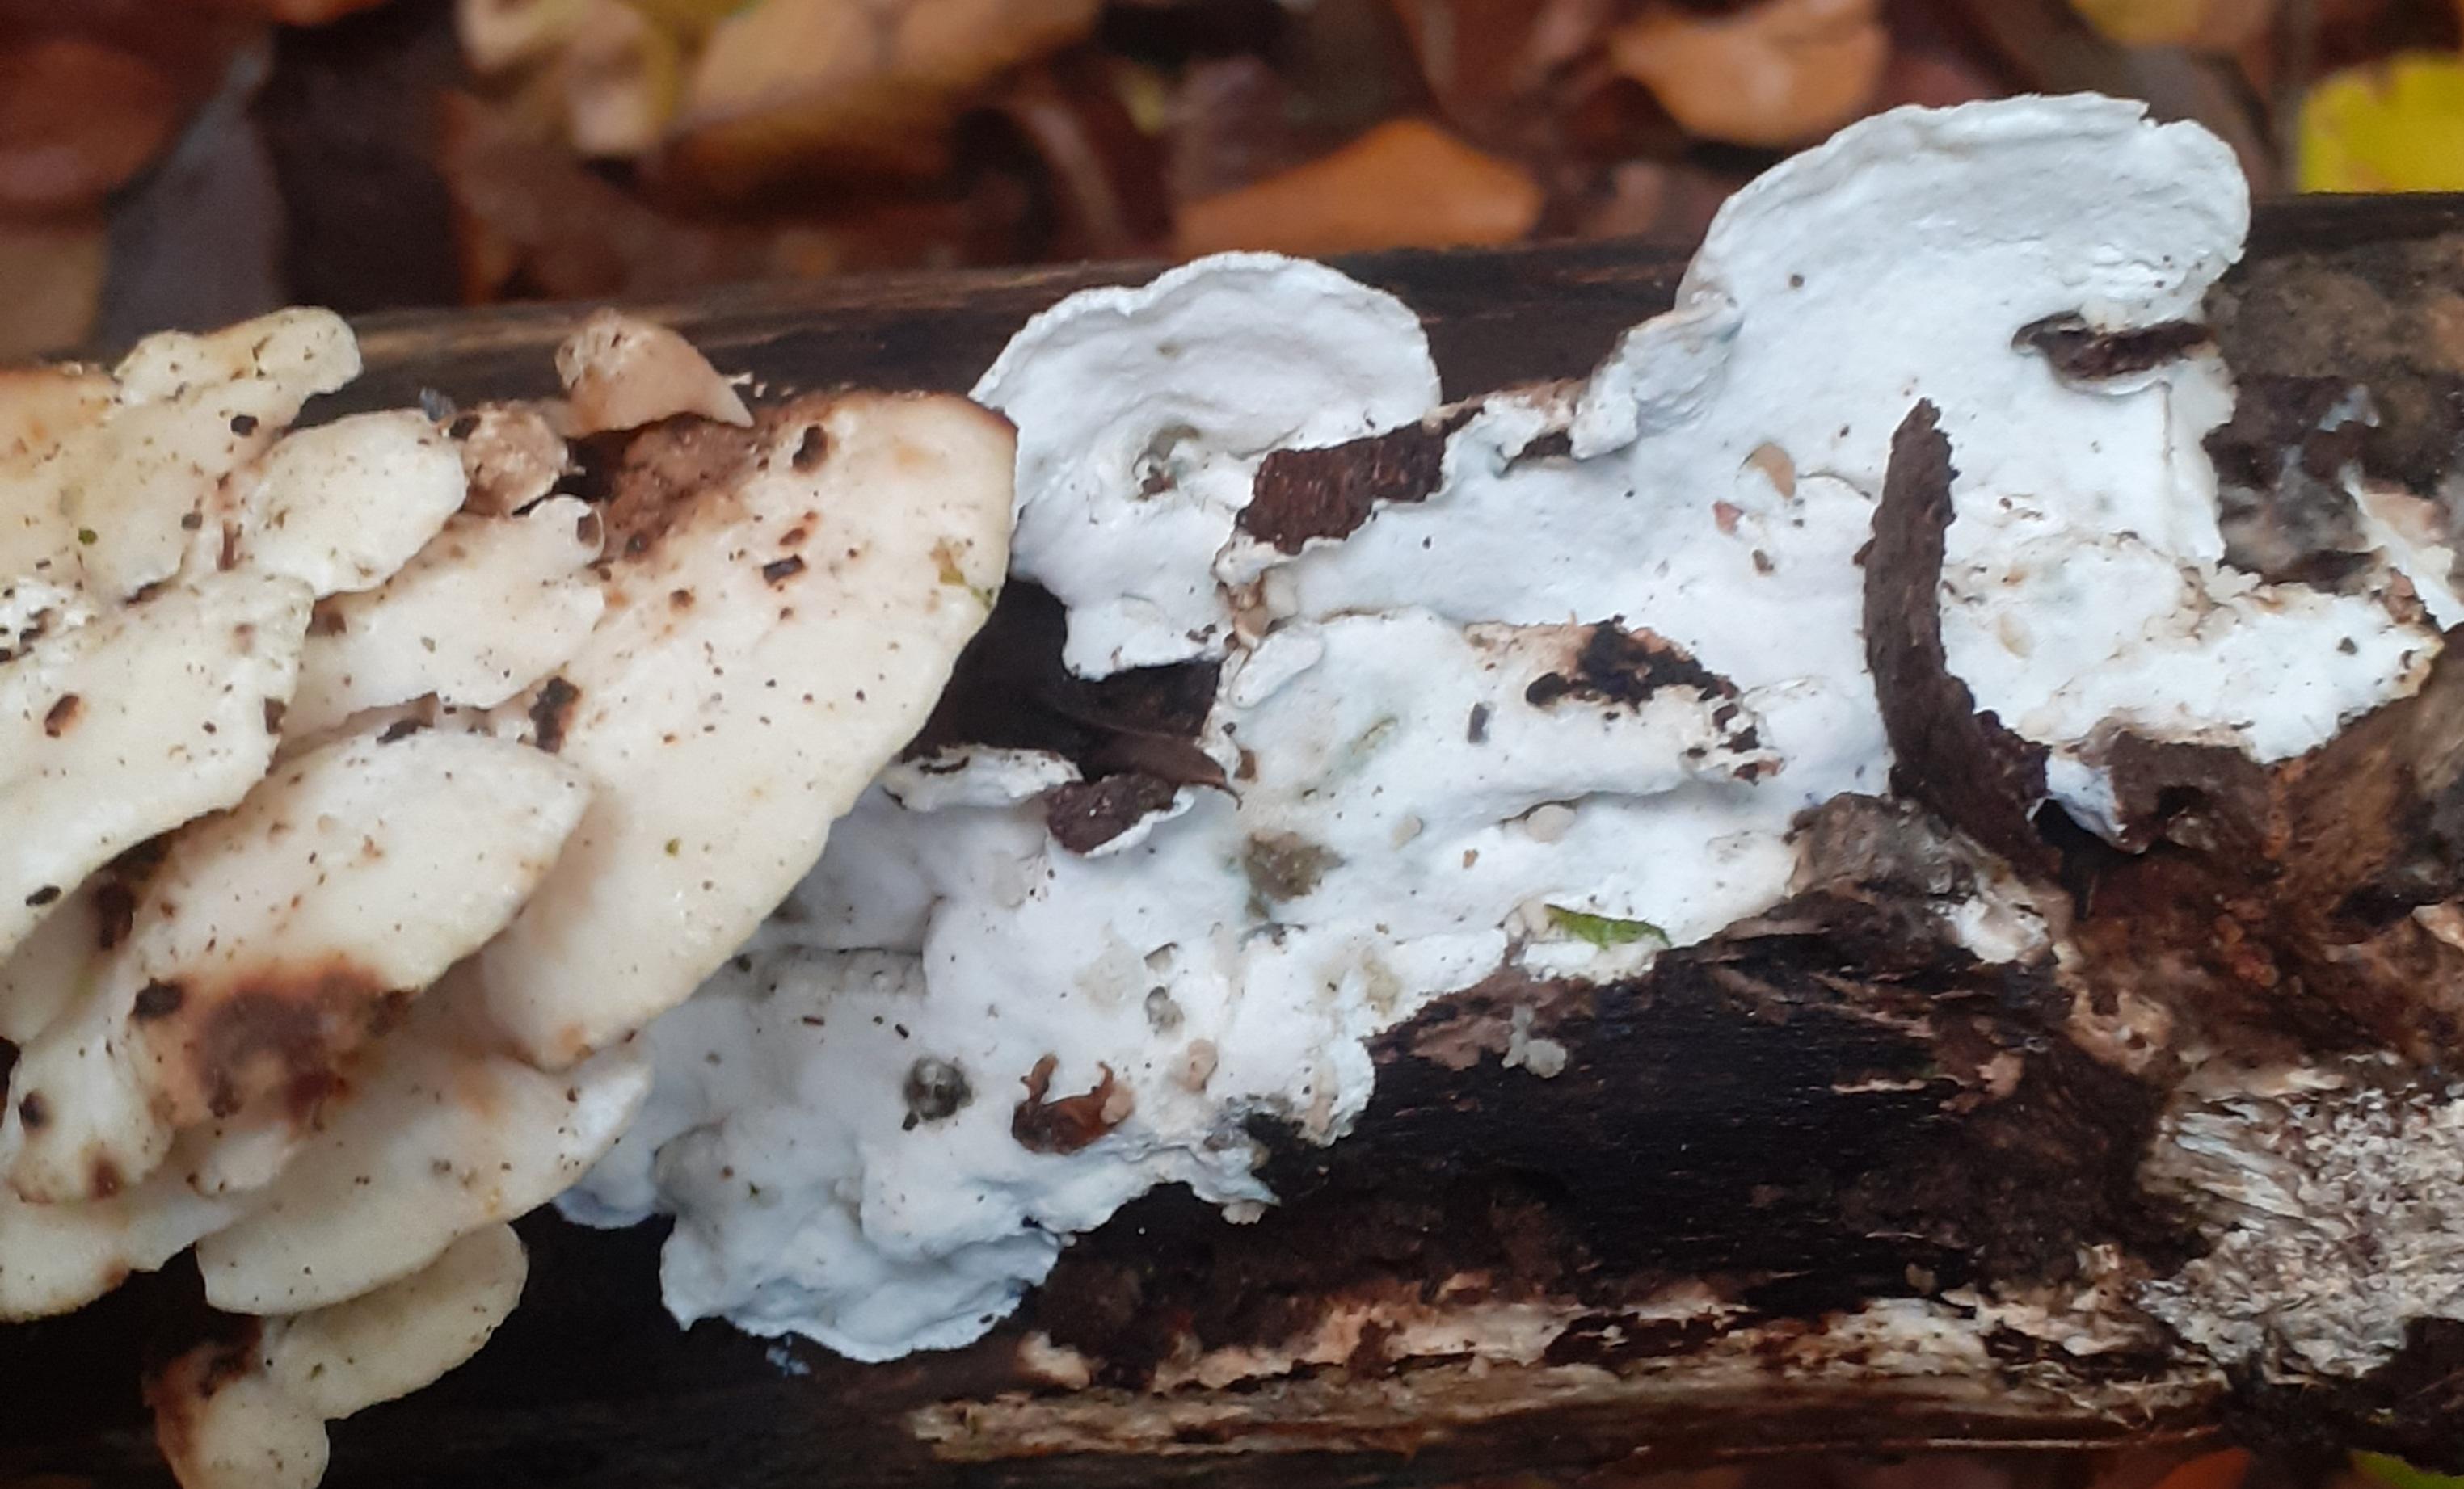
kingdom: Fungi
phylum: Basidiomycota
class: Agaricomycetes
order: Polyporales
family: Incrustoporiaceae
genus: Skeletocutis
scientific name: Skeletocutis nemoralis
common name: stor krystalporesvamp
